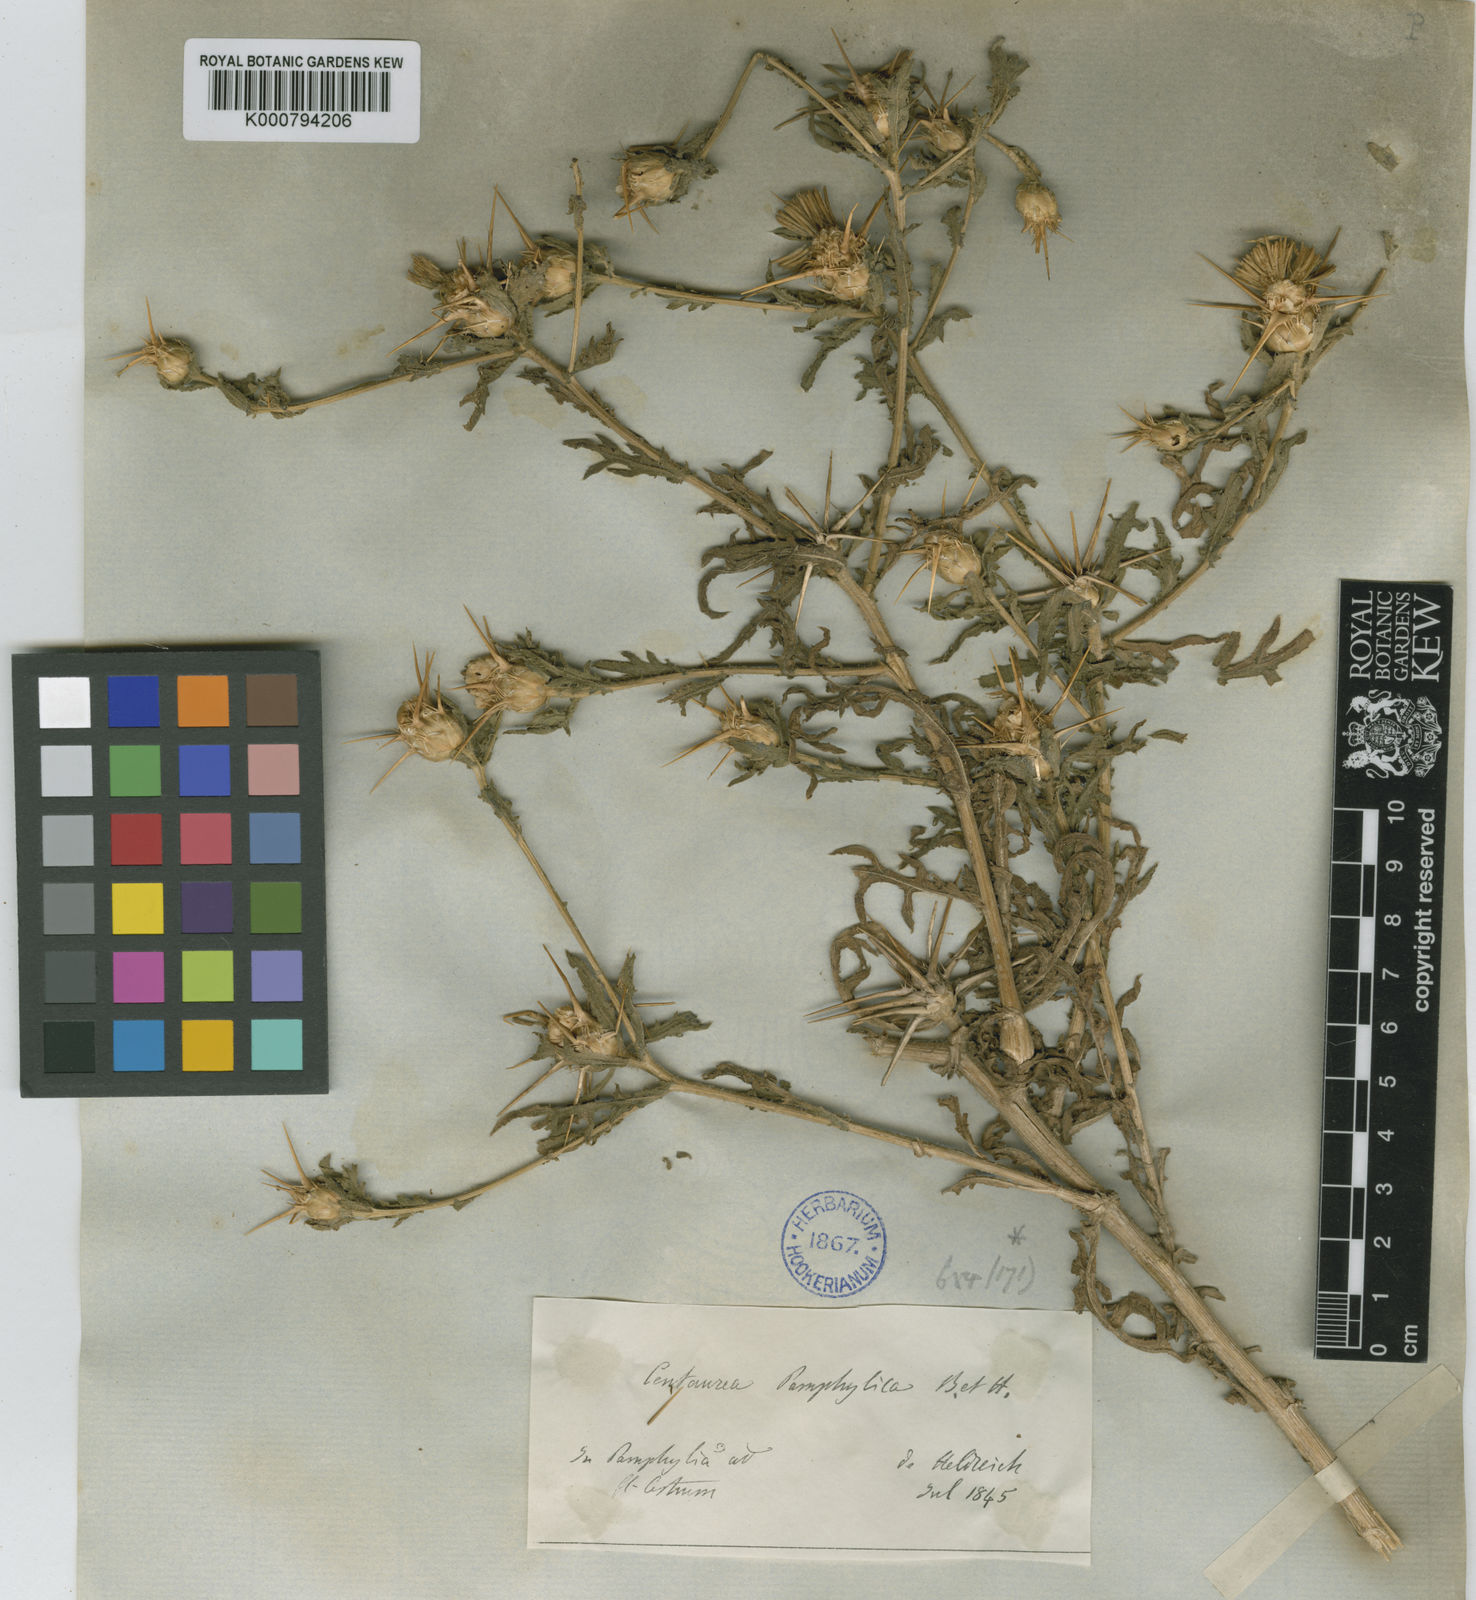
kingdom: Plantae
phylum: Tracheophyta
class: Magnoliopsida
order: Asterales
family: Asteraceae
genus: Centaurea
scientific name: Centaurea pamphylica
